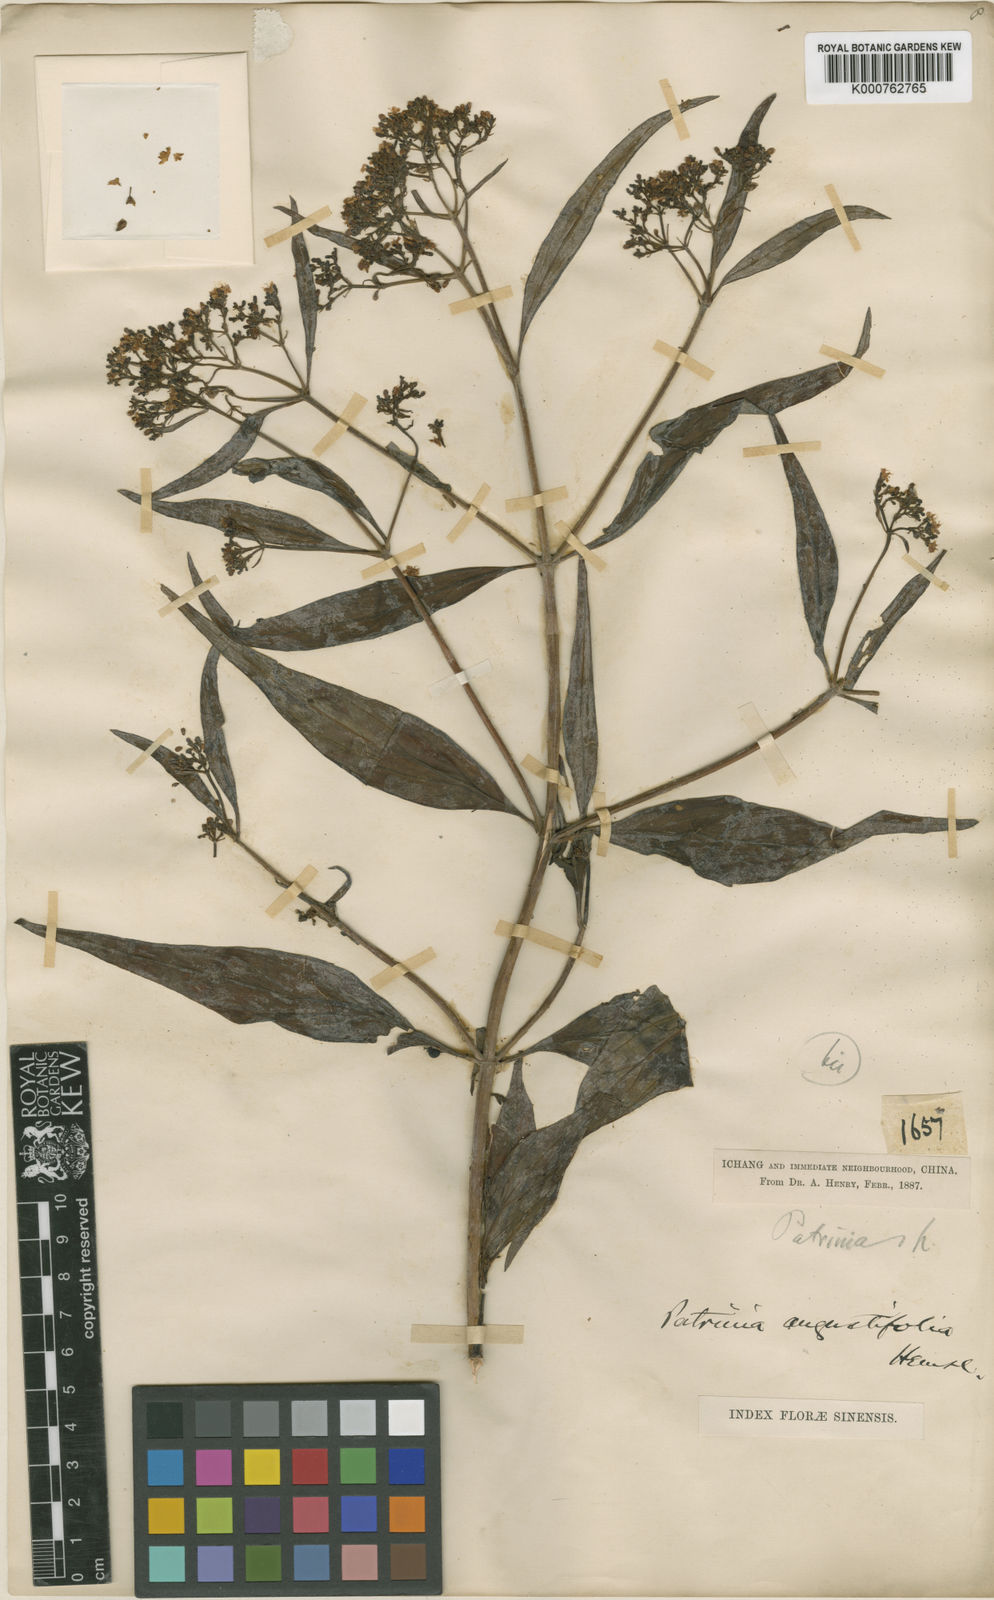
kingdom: Plantae
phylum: Tracheophyta
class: Magnoliopsida
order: Dipsacales
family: Caprifoliaceae
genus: Patrinia
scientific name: Patrinia heterophylla
